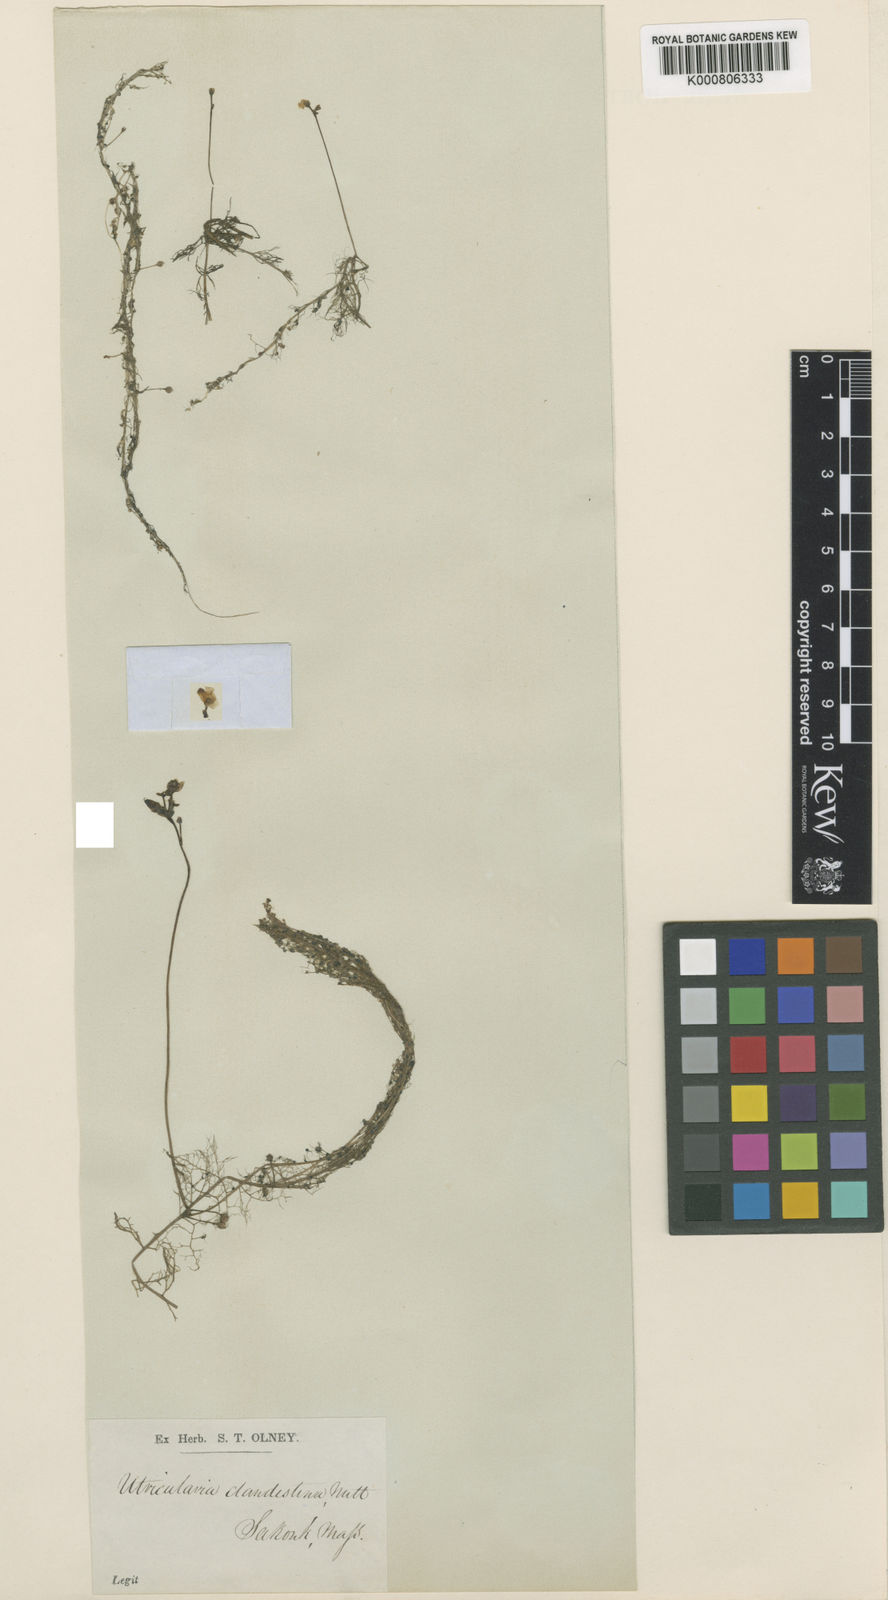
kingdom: Plantae
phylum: Tracheophyta
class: Magnoliopsida
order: Lamiales
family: Lentibulariaceae
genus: Utricularia
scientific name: Utricularia geminiscapa
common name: Hidden-fruit bladderwort
